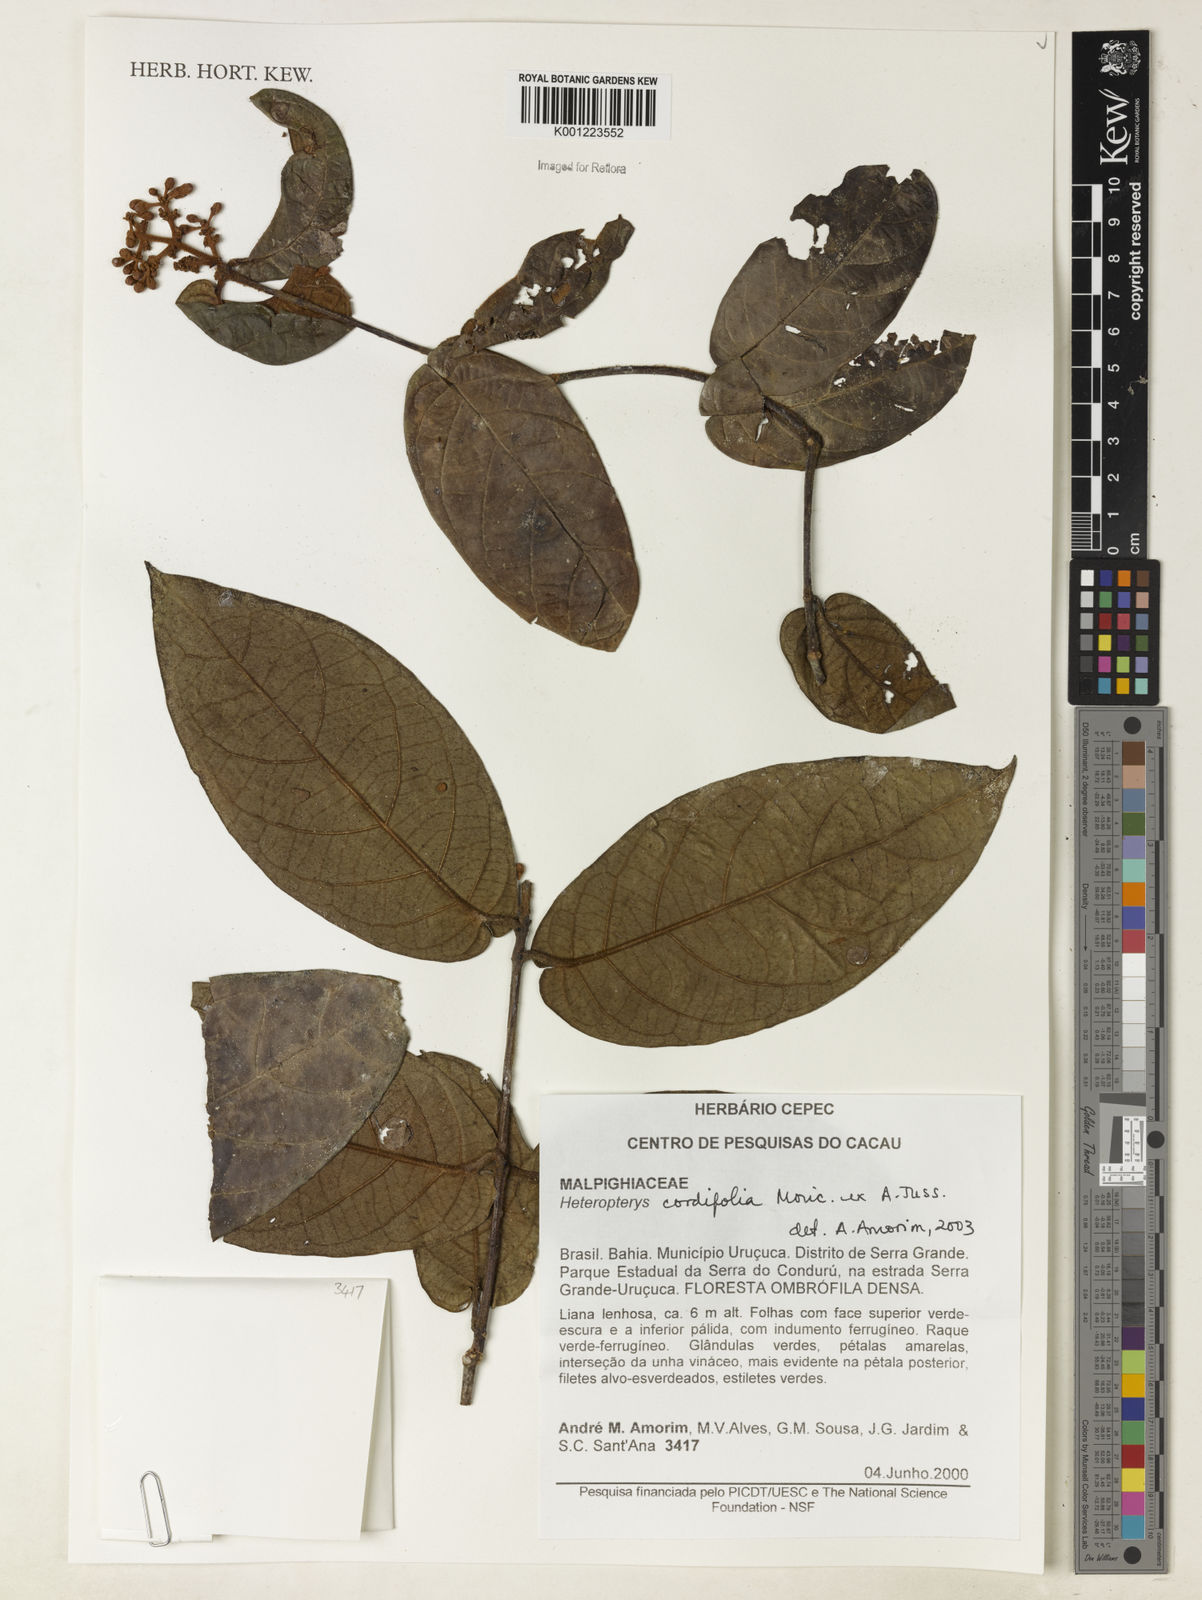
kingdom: Plantae
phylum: Tracheophyta
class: Magnoliopsida
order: Malpighiales
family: Malpighiaceae
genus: Heteropterys
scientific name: Heteropterys cordifolia
